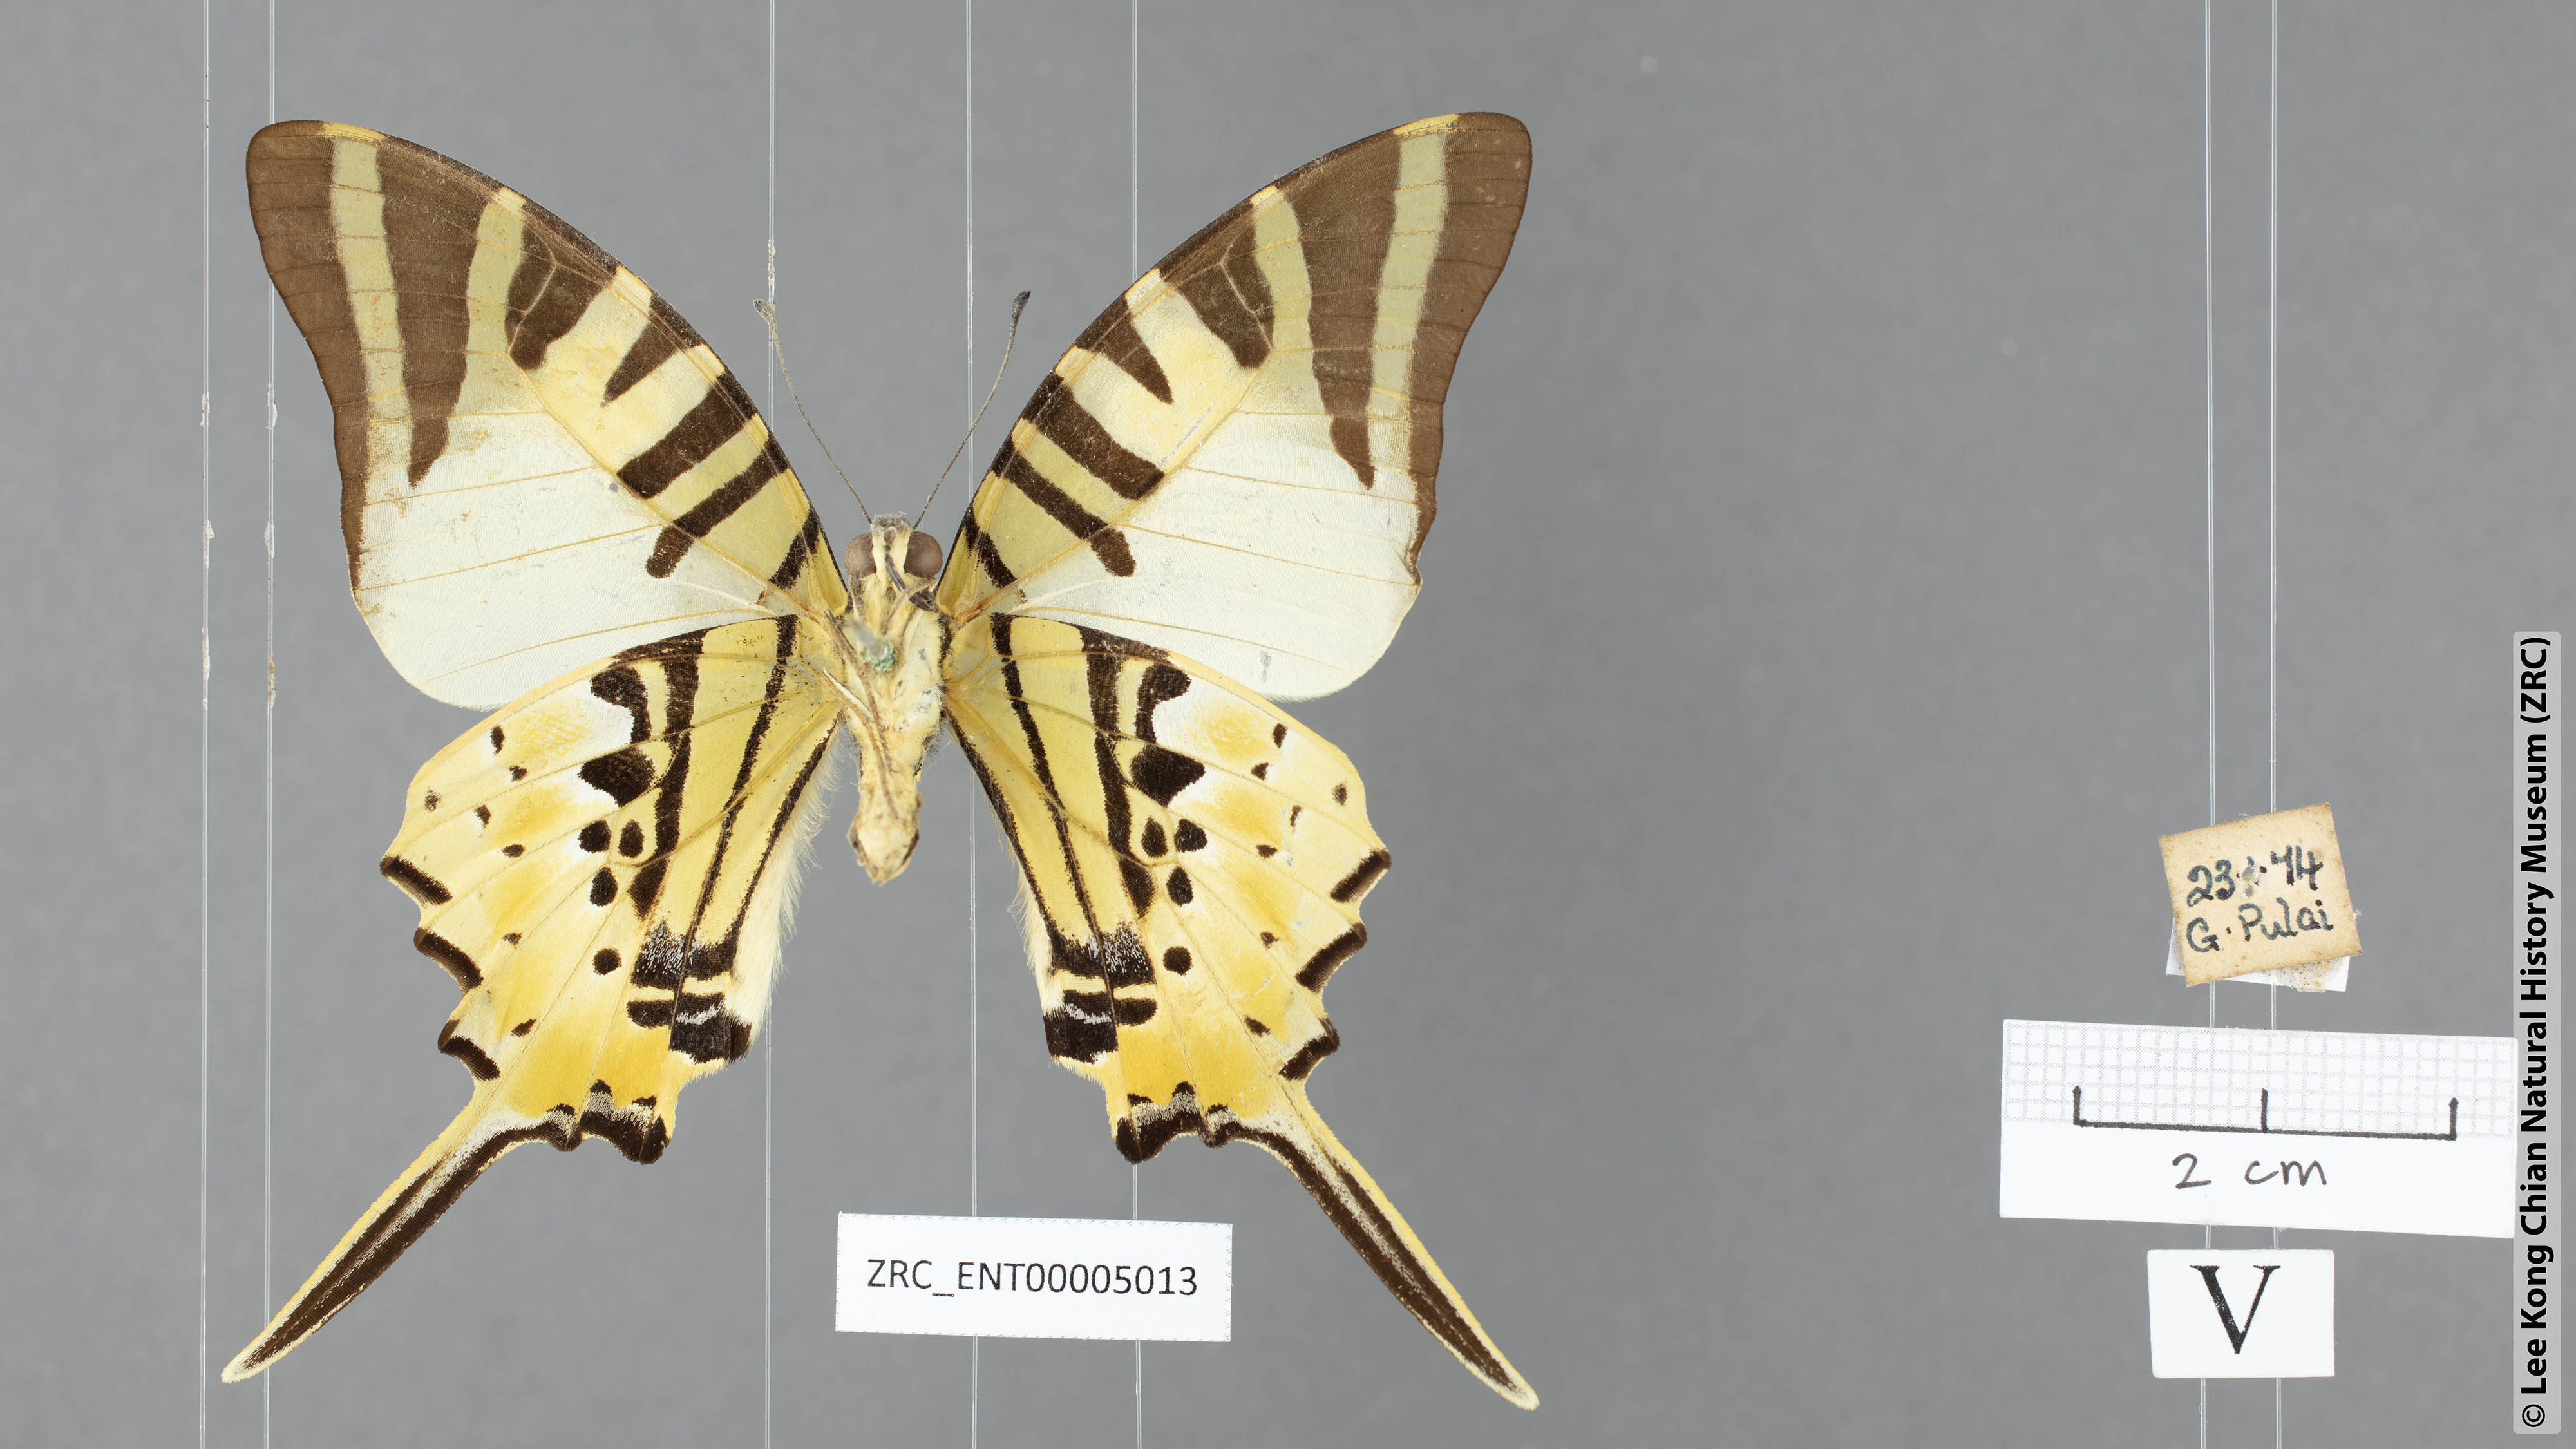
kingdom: Animalia
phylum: Arthropoda
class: Insecta
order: Lepidoptera
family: Papilionidae
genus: Graphium
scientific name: Graphium antiphates
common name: Fivebar swordtail
